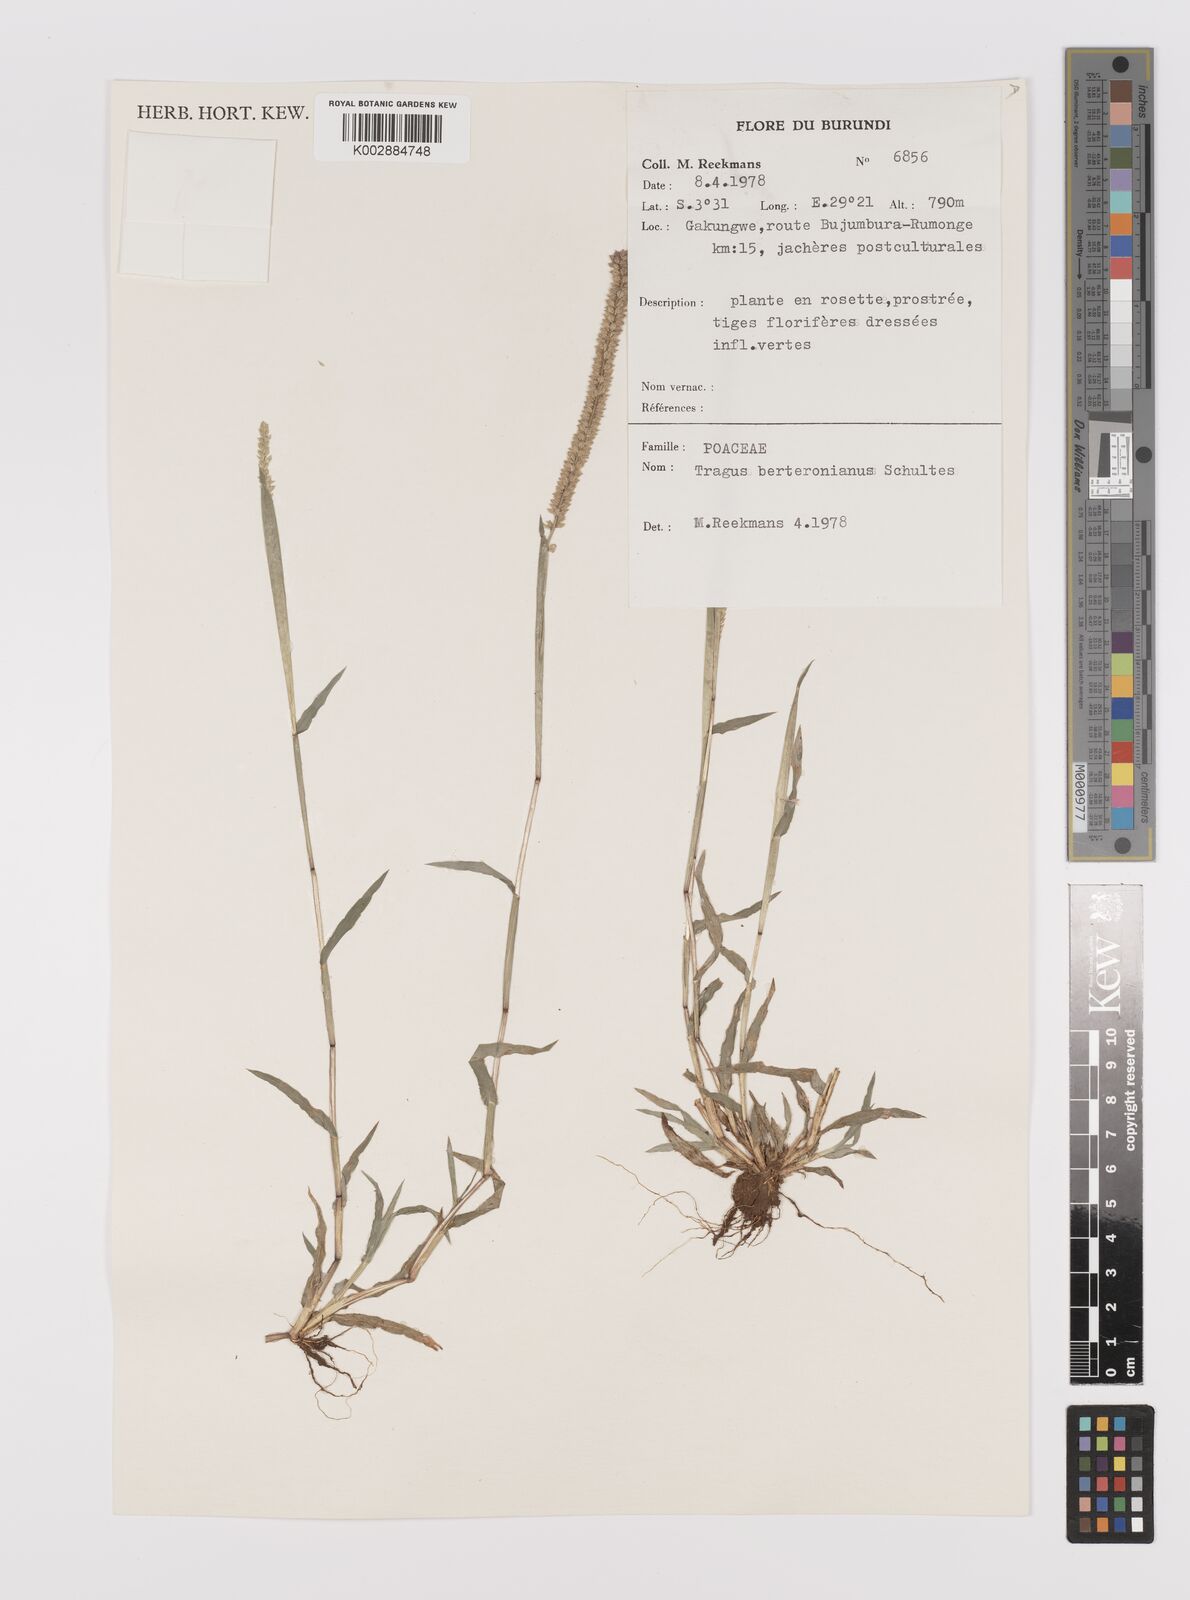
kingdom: Plantae
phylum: Tracheophyta
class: Liliopsida
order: Poales
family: Poaceae
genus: Tragus
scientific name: Tragus berteronianus
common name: African bur-grass
